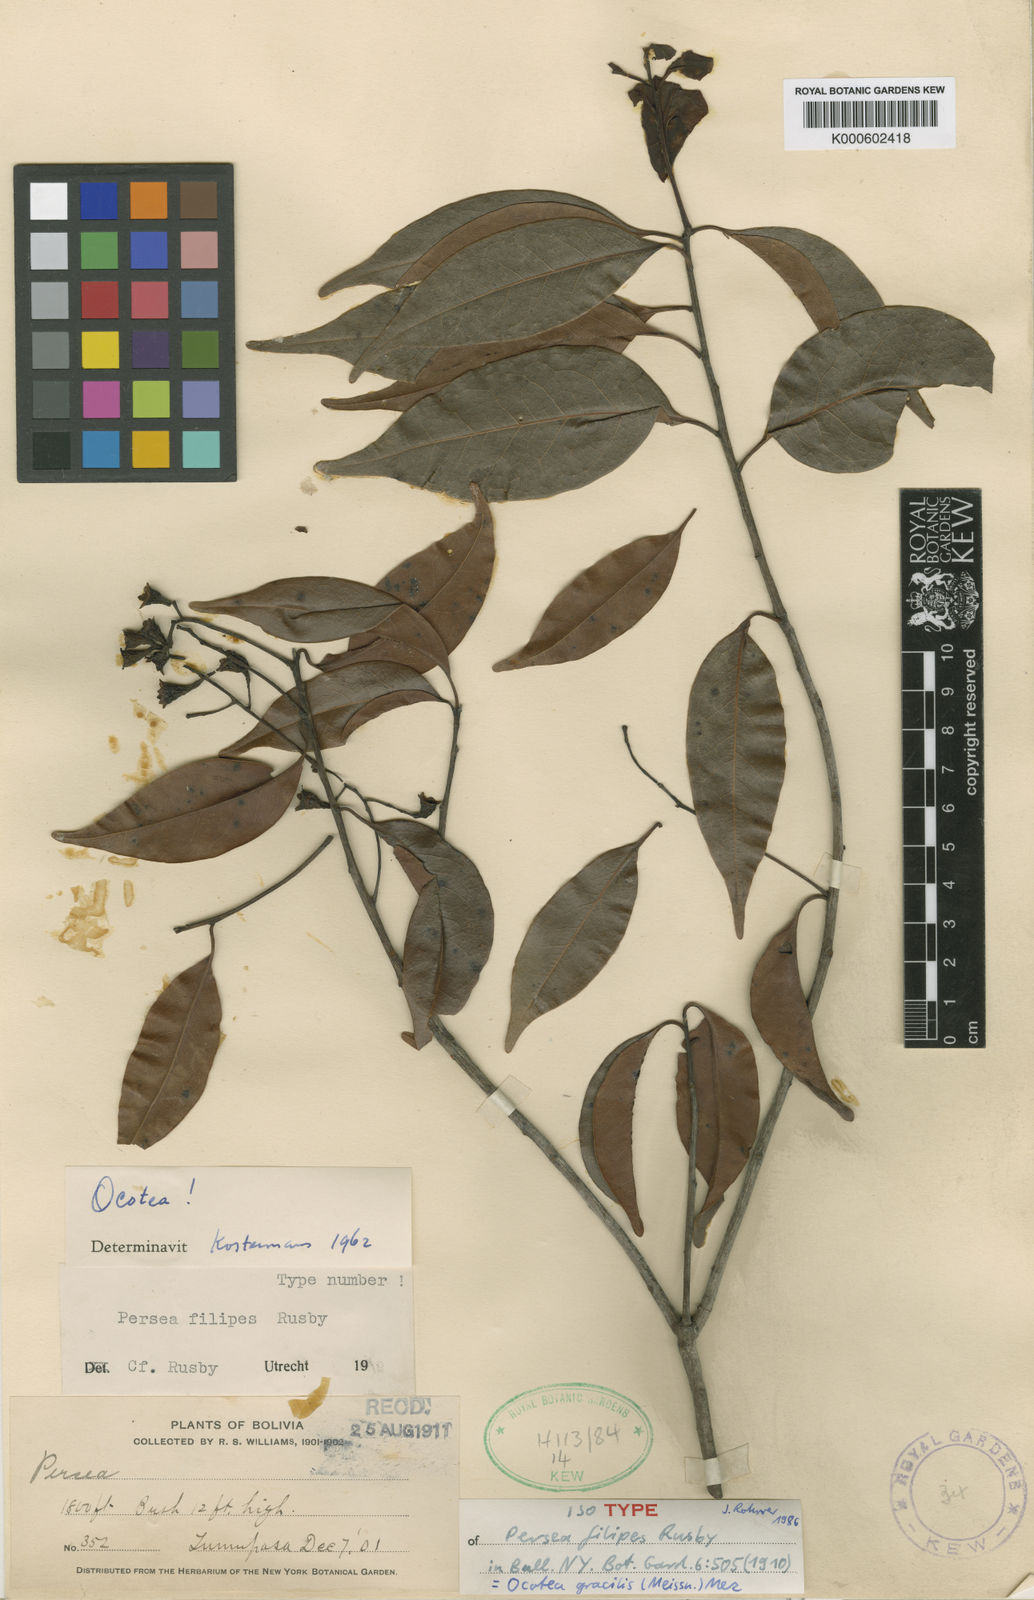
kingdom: Plantae
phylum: Tracheophyta
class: Magnoliopsida
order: Laurales
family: Lauraceae
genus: Ocotea
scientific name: Ocotea gracilis
